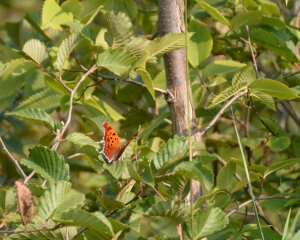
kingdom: Animalia
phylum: Arthropoda
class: Insecta
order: Lepidoptera
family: Nymphalidae
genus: Polygonia
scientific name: Polygonia interrogationis
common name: Question Mark
